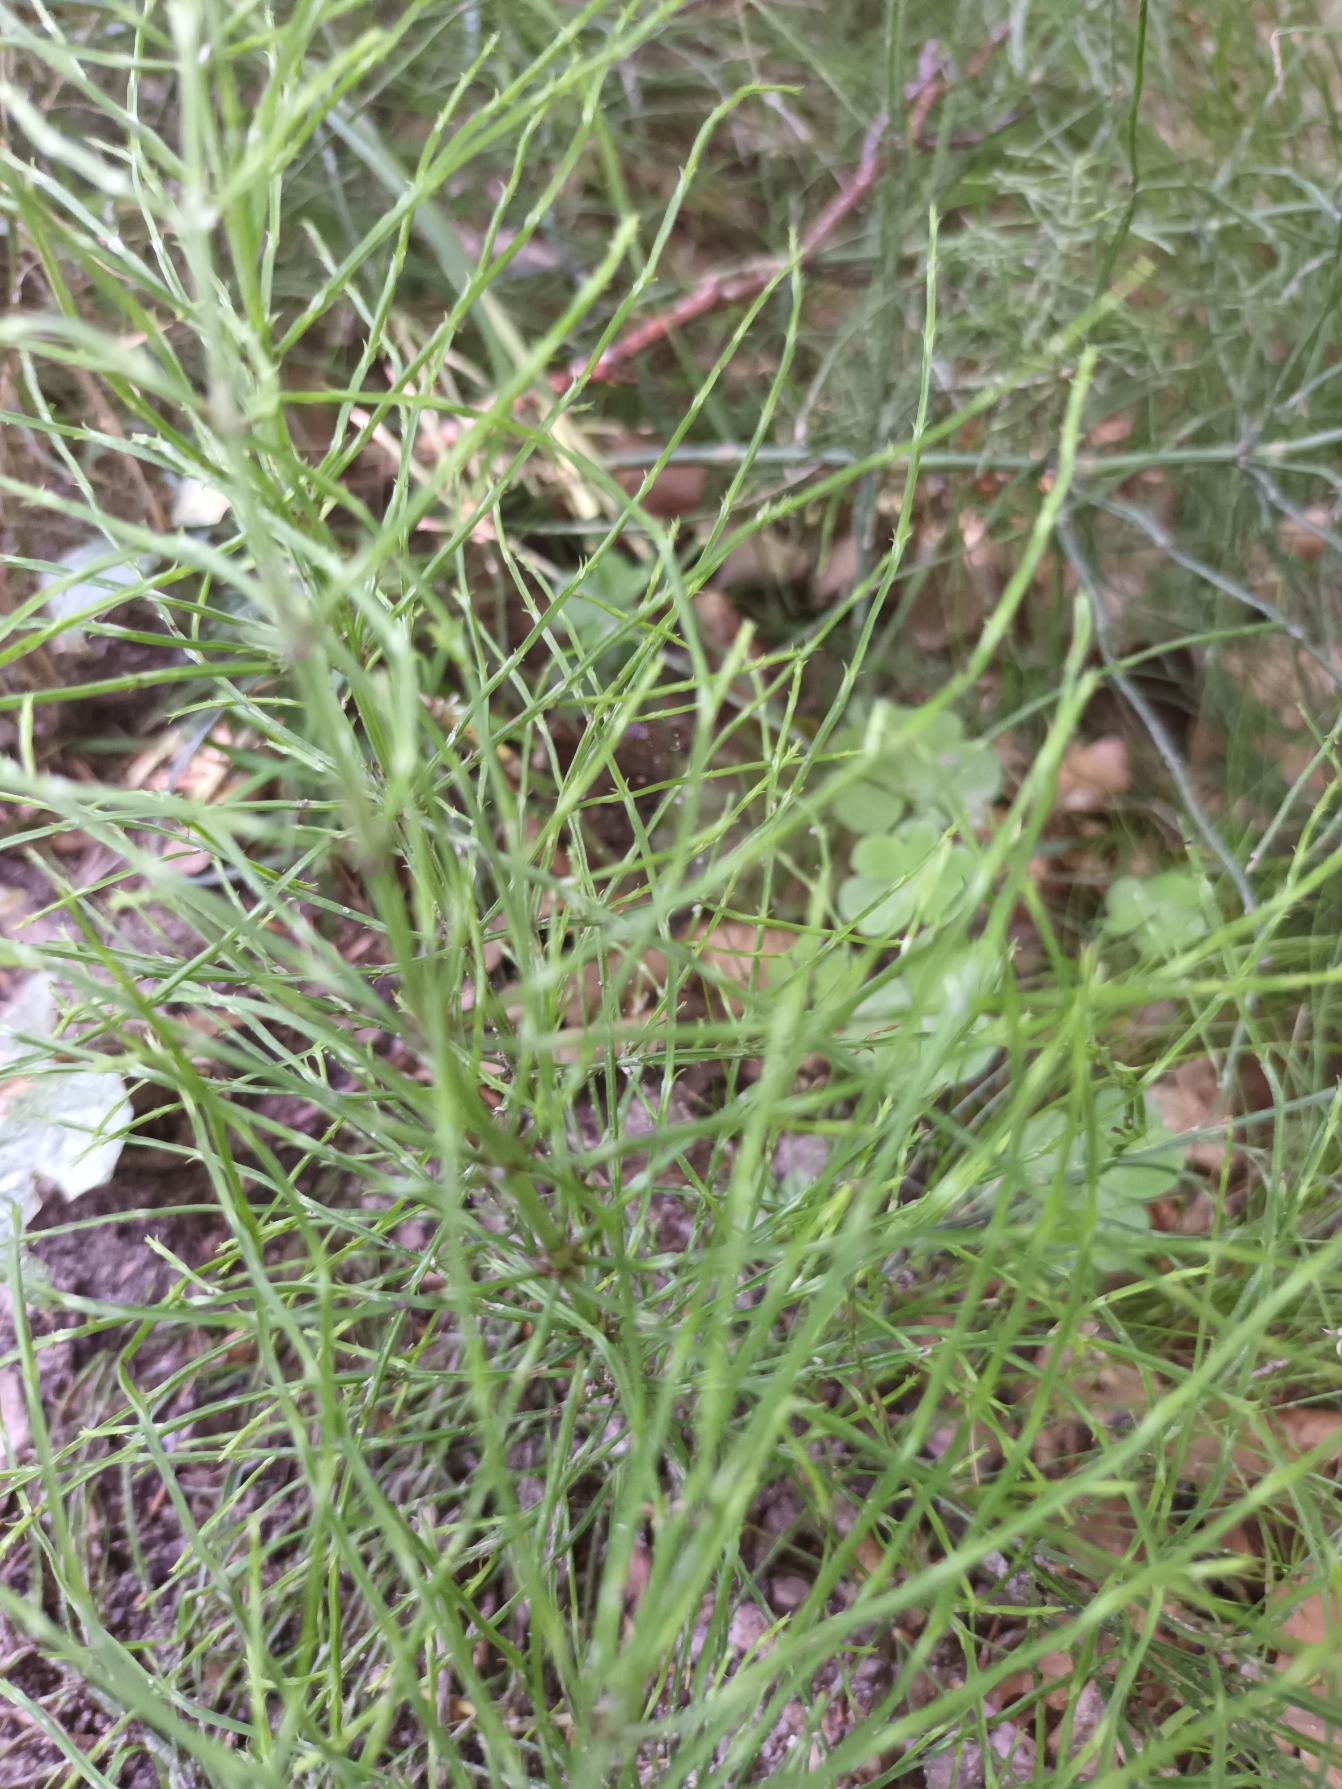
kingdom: Plantae
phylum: Tracheophyta
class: Polypodiopsida
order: Equisetales
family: Equisetaceae
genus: Equisetum
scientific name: Equisetum arvense
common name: Ager-padderok
